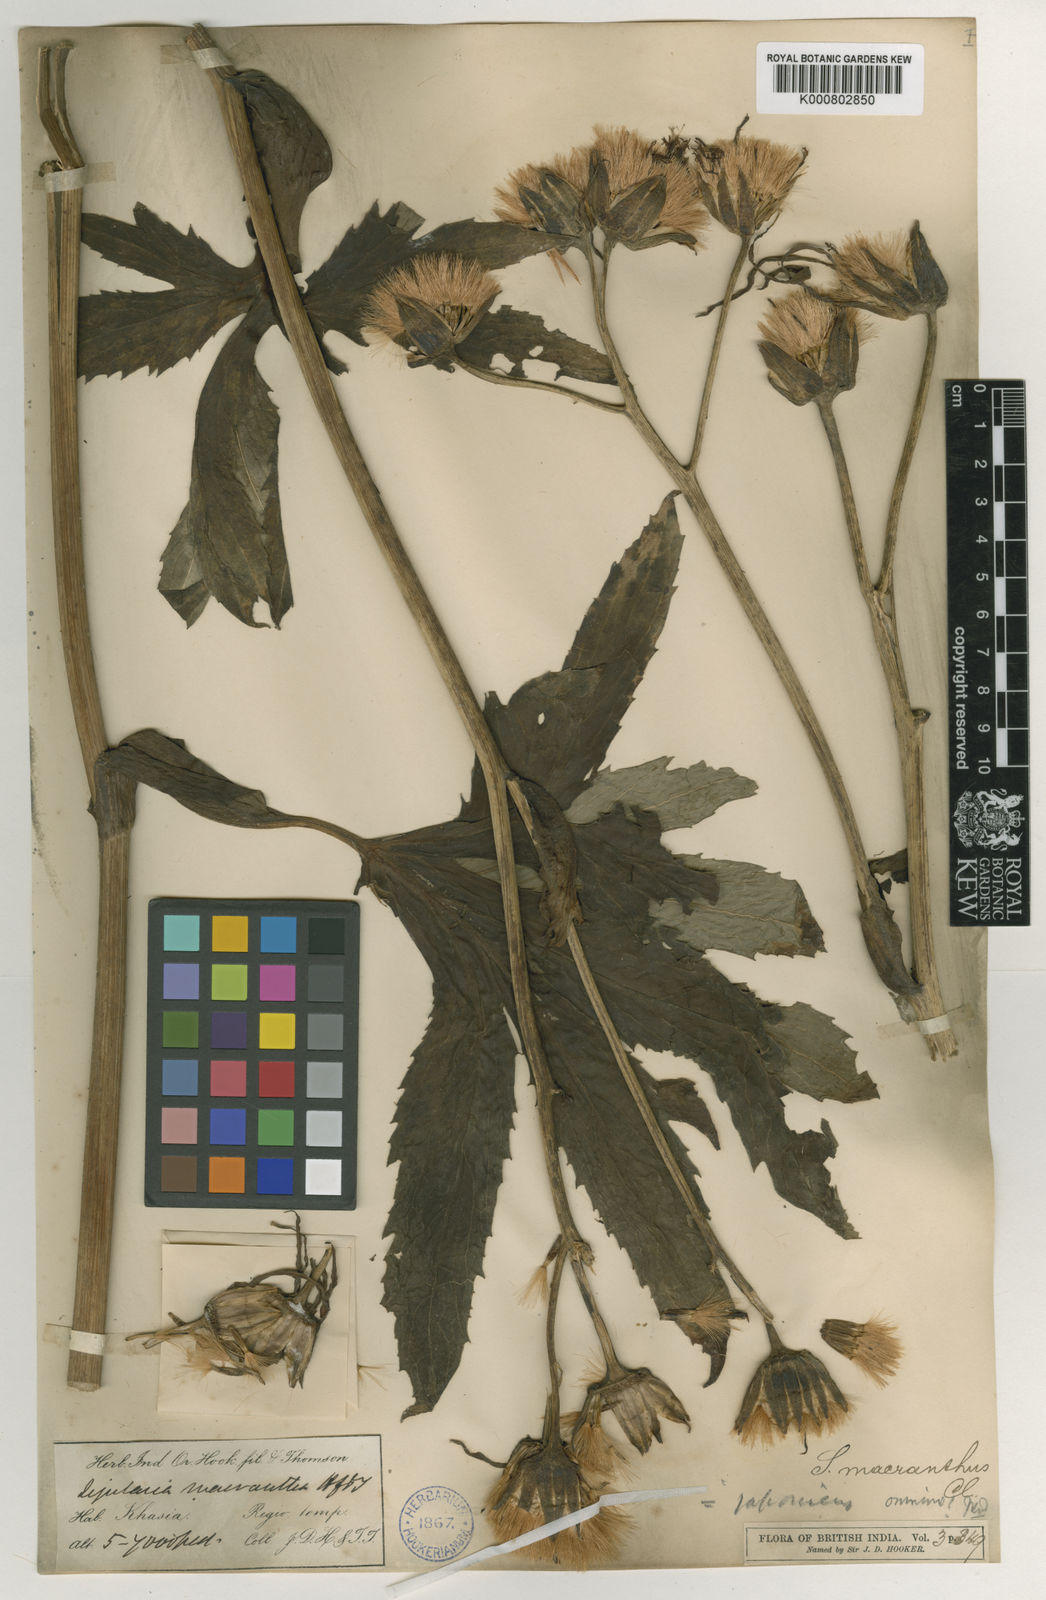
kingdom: Plantae
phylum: Tracheophyta
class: Magnoliopsida
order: Asterales
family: Asteraceae
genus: Ligularia
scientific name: Ligularia japonica
